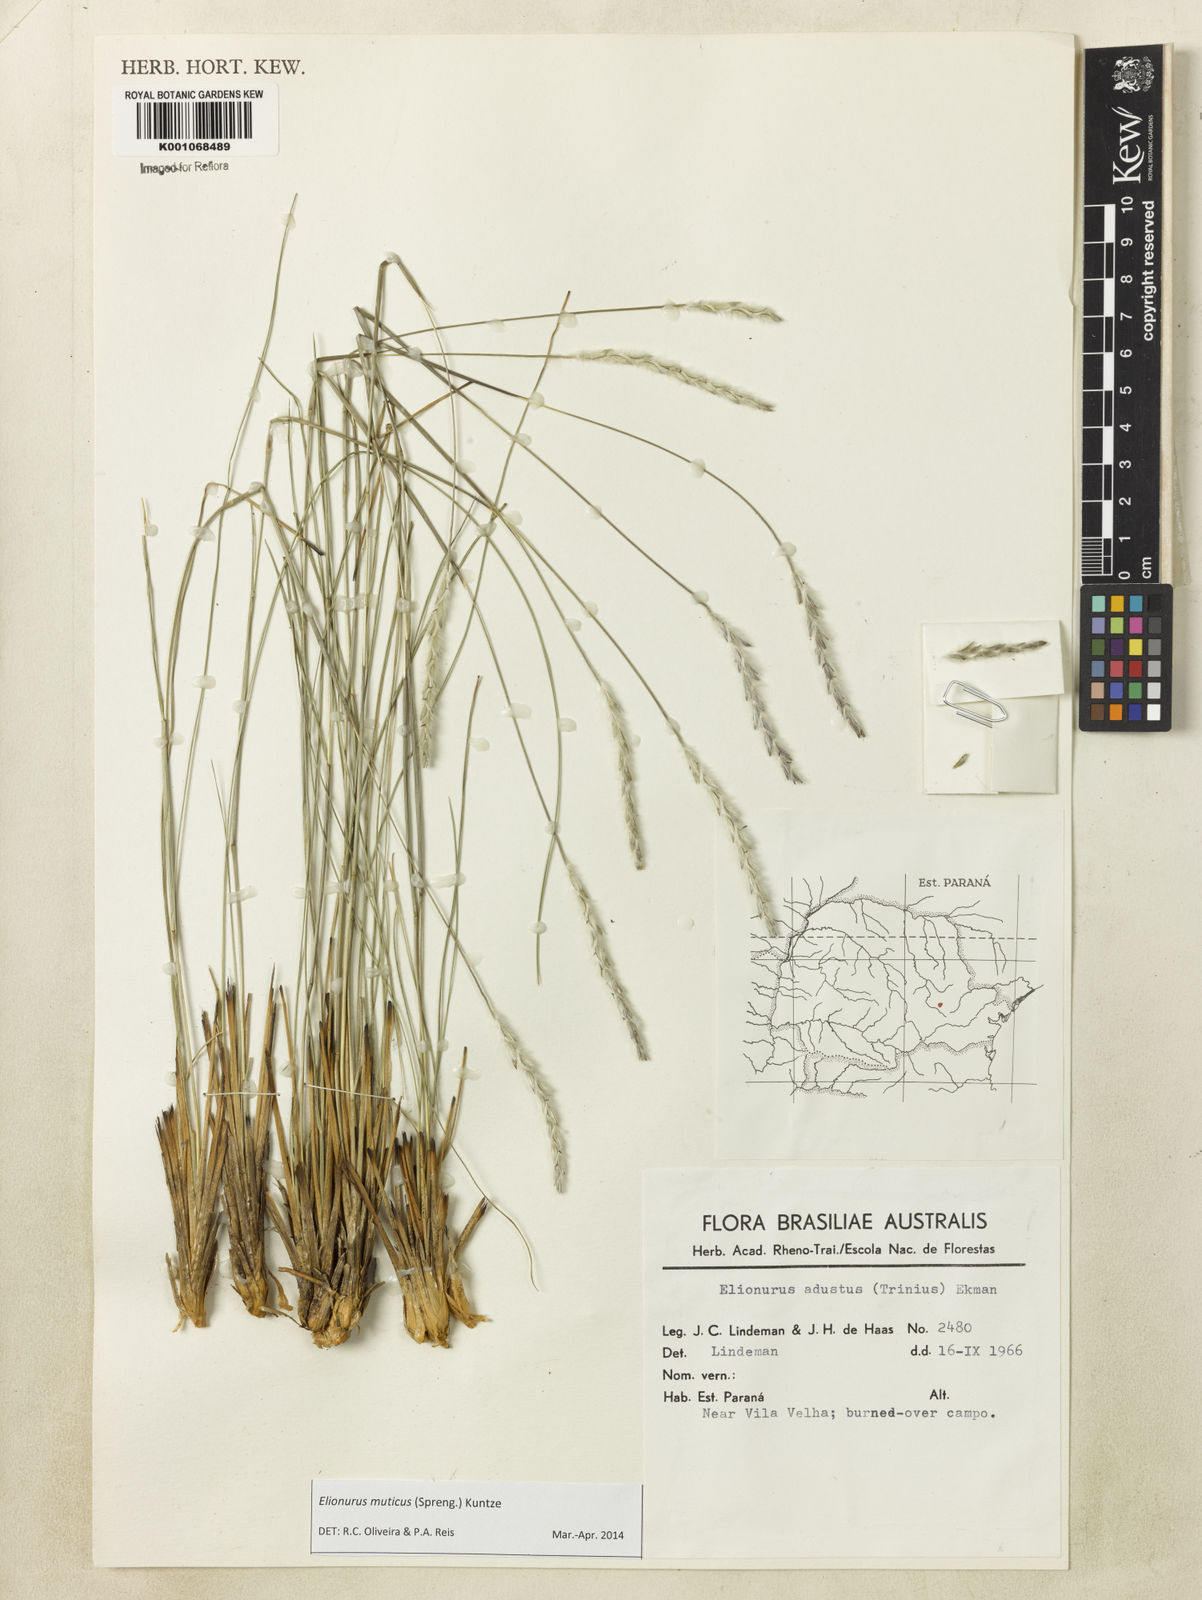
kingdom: Plantae
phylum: Tracheophyta
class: Liliopsida
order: Poales
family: Poaceae
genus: Elionurus
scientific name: Elionurus muticus
